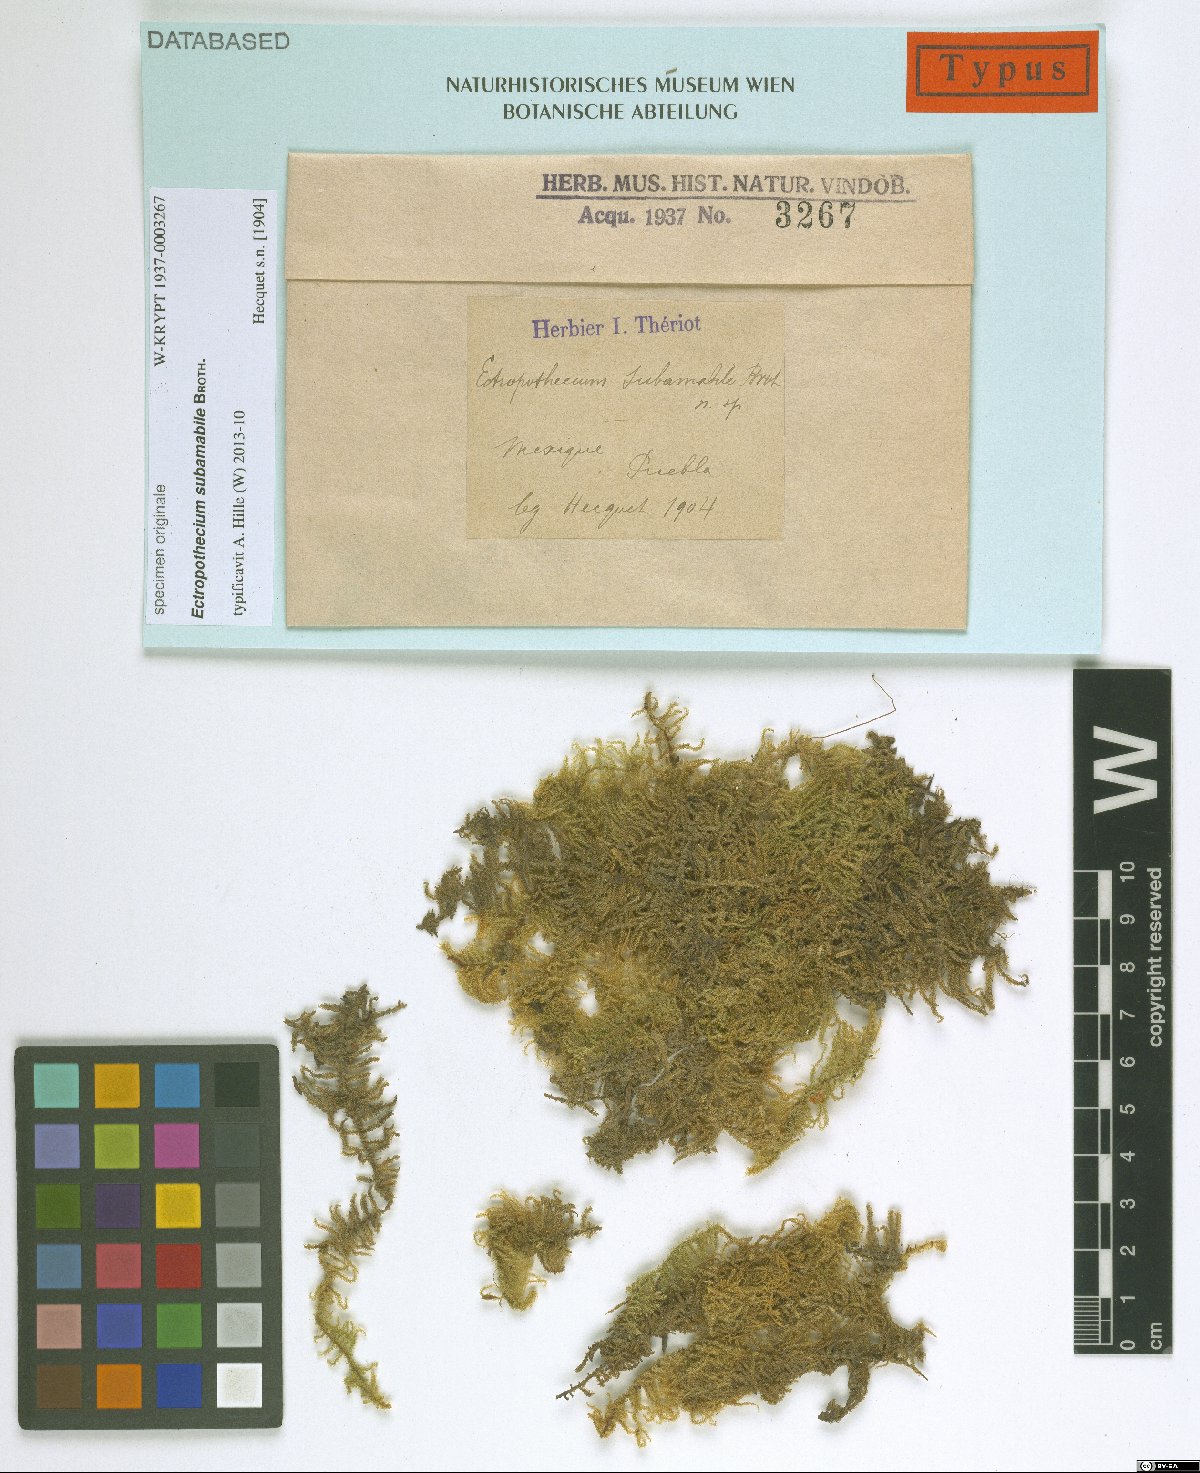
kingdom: Plantae
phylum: Bryophyta
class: Bryopsida
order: Hypnales
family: Hypnaceae
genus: Ectropothecium
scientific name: Ectropothecium
